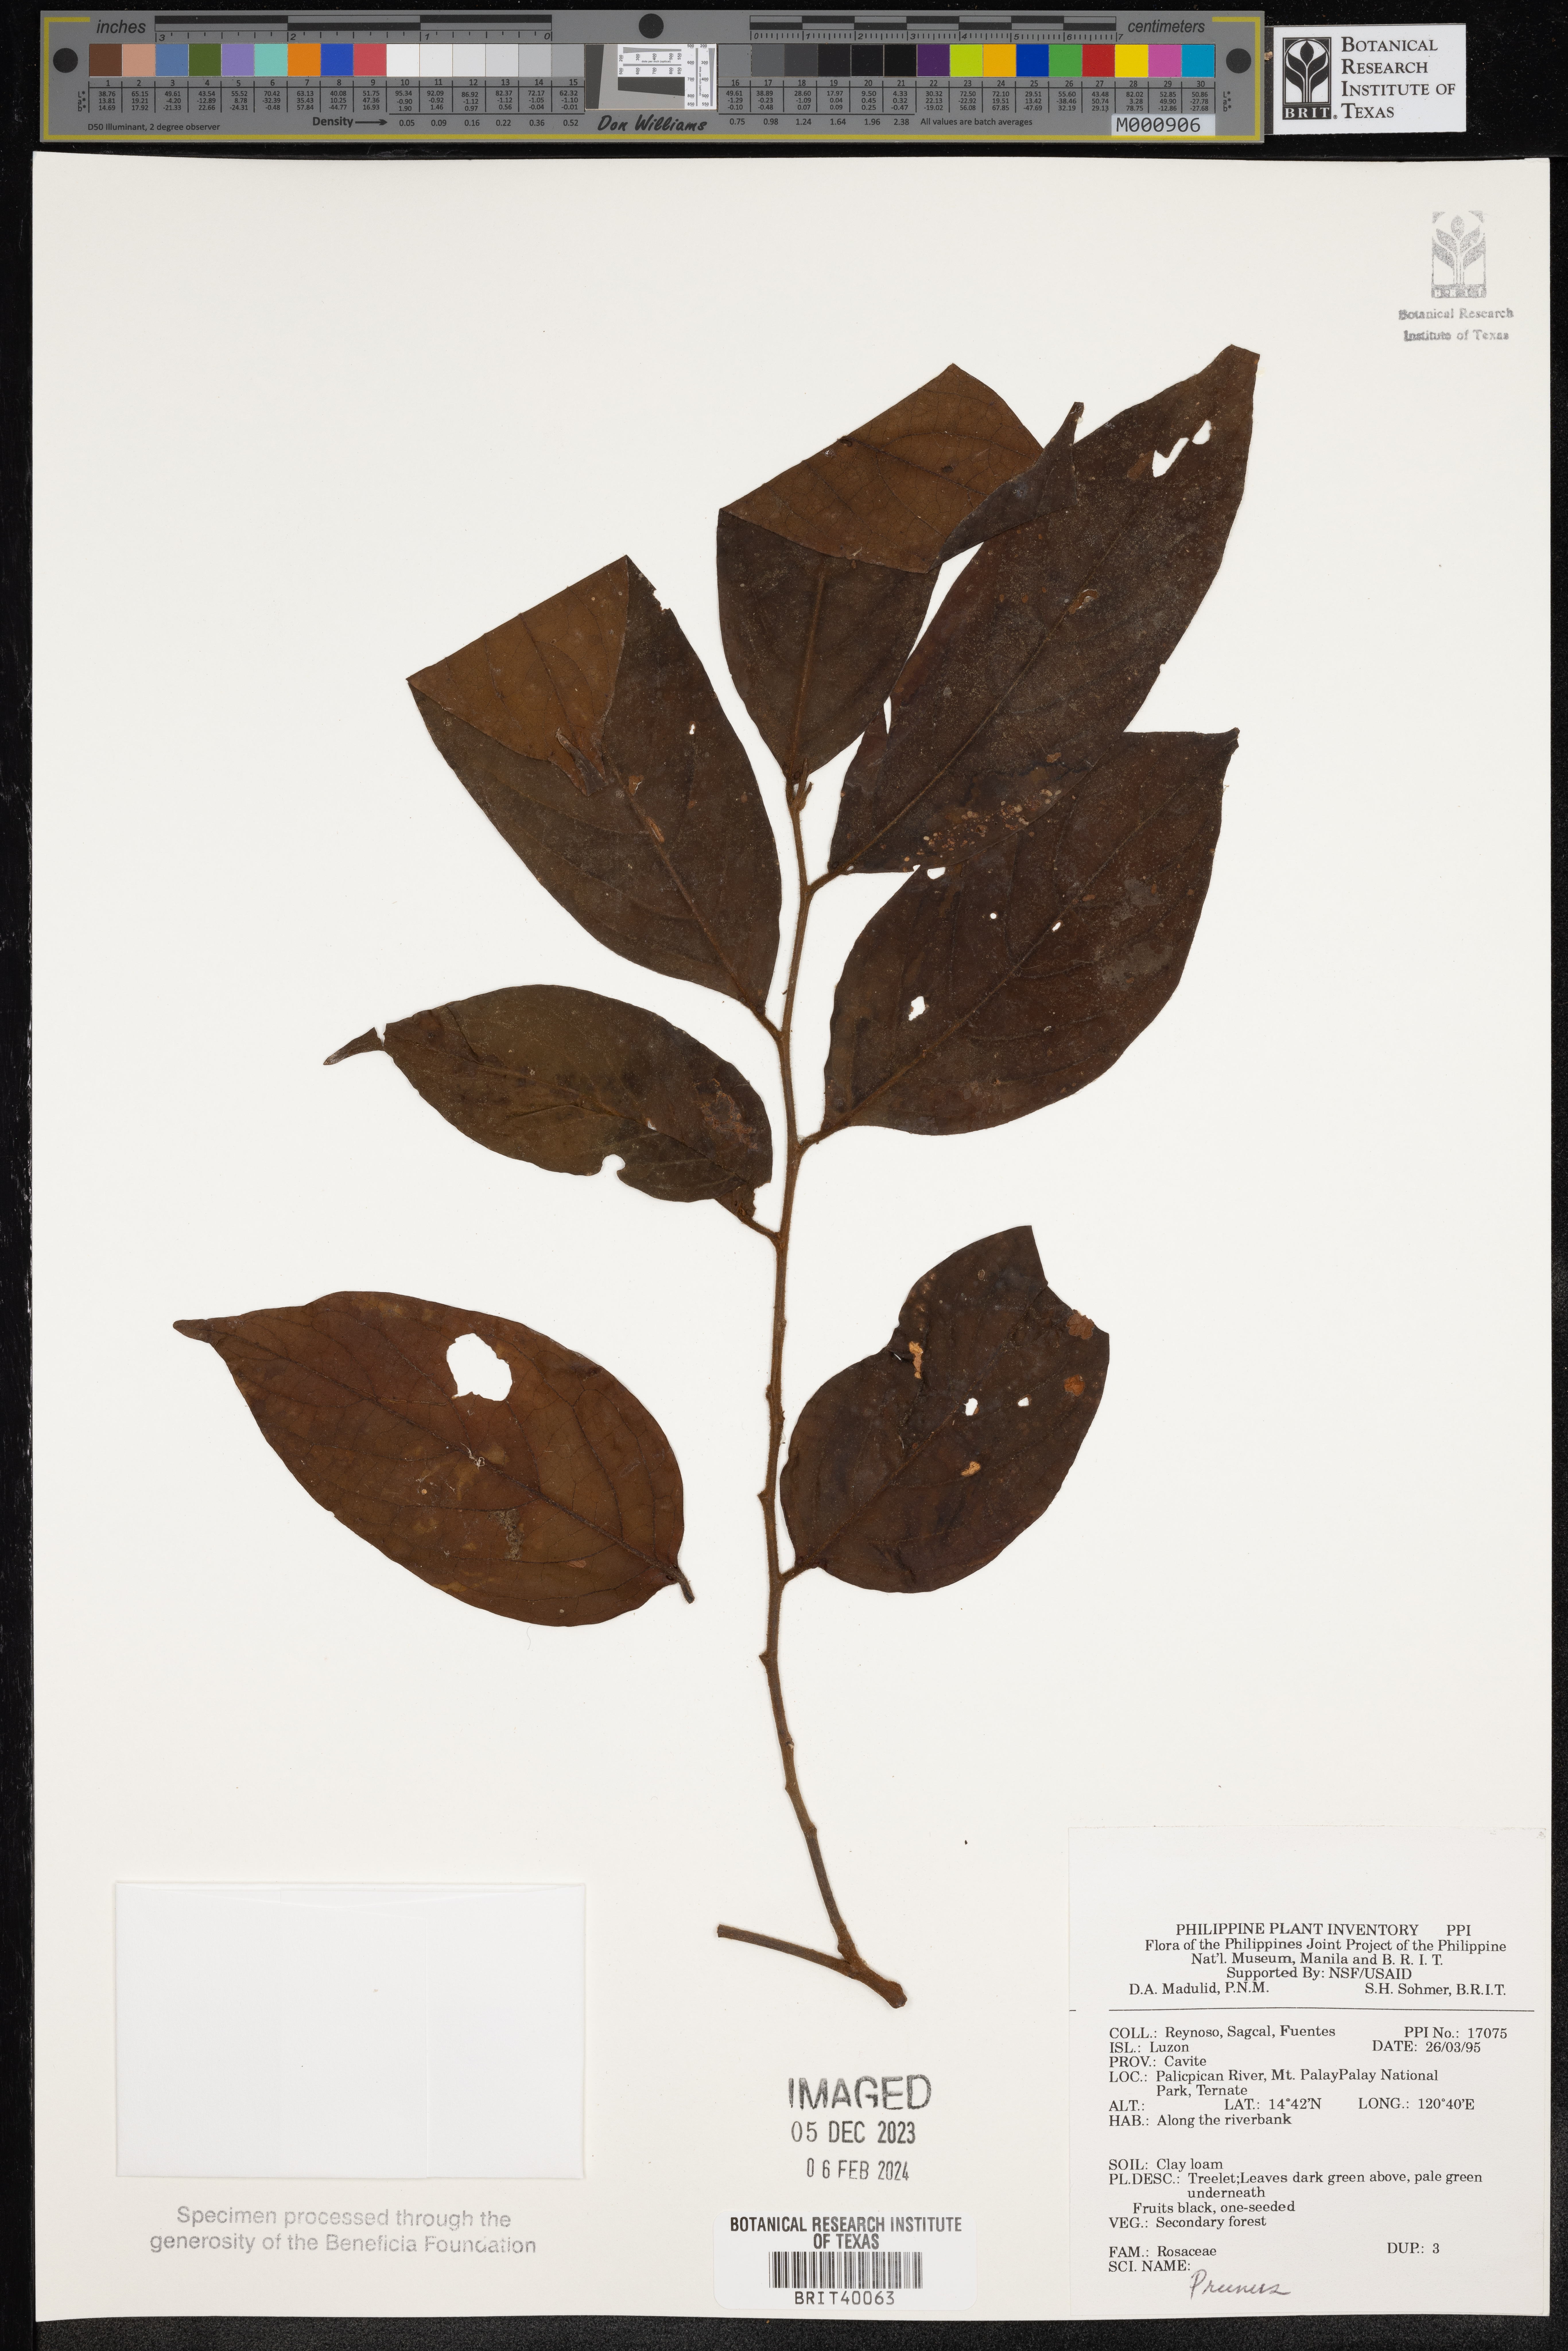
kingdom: Plantae
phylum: Tracheophyta
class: Magnoliopsida
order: Rosales
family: Rosaceae
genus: Prunus
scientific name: Prunus
